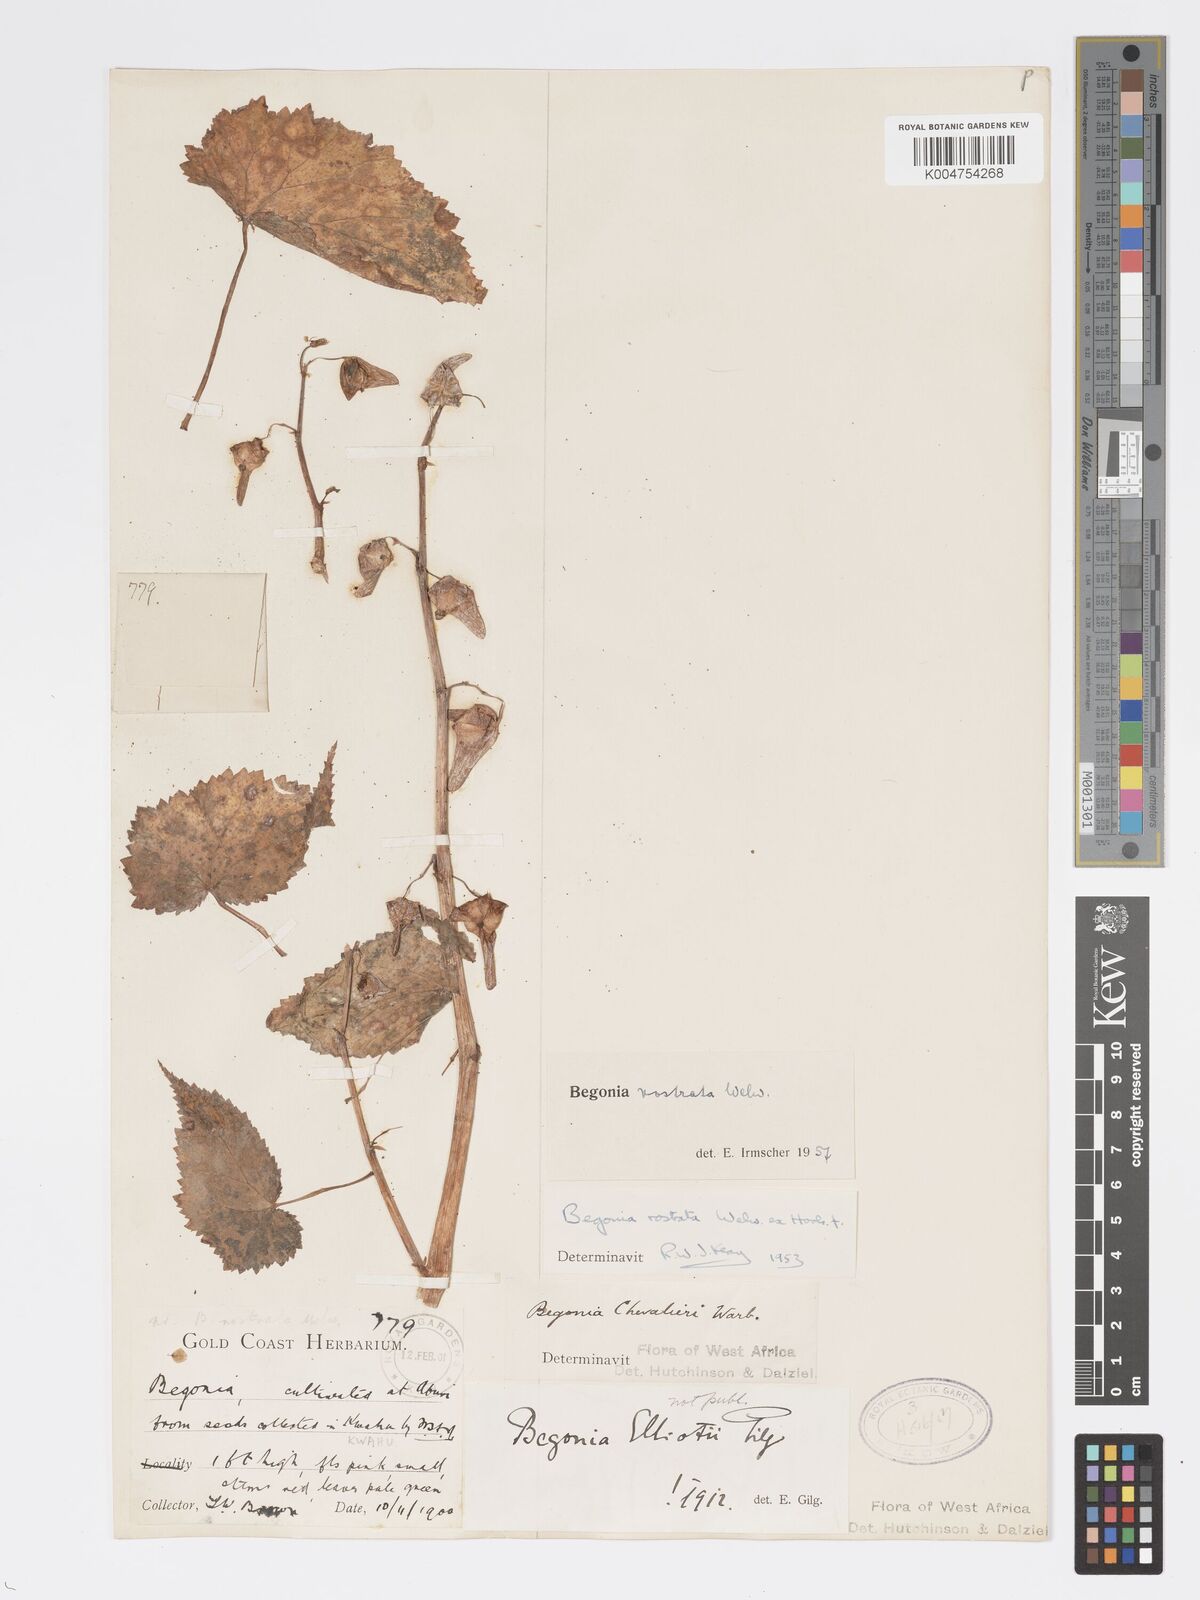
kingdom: Plantae
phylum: Tracheophyta
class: Magnoliopsida
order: Cucurbitales
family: Begoniaceae
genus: Begonia
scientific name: Begonia rostrata
